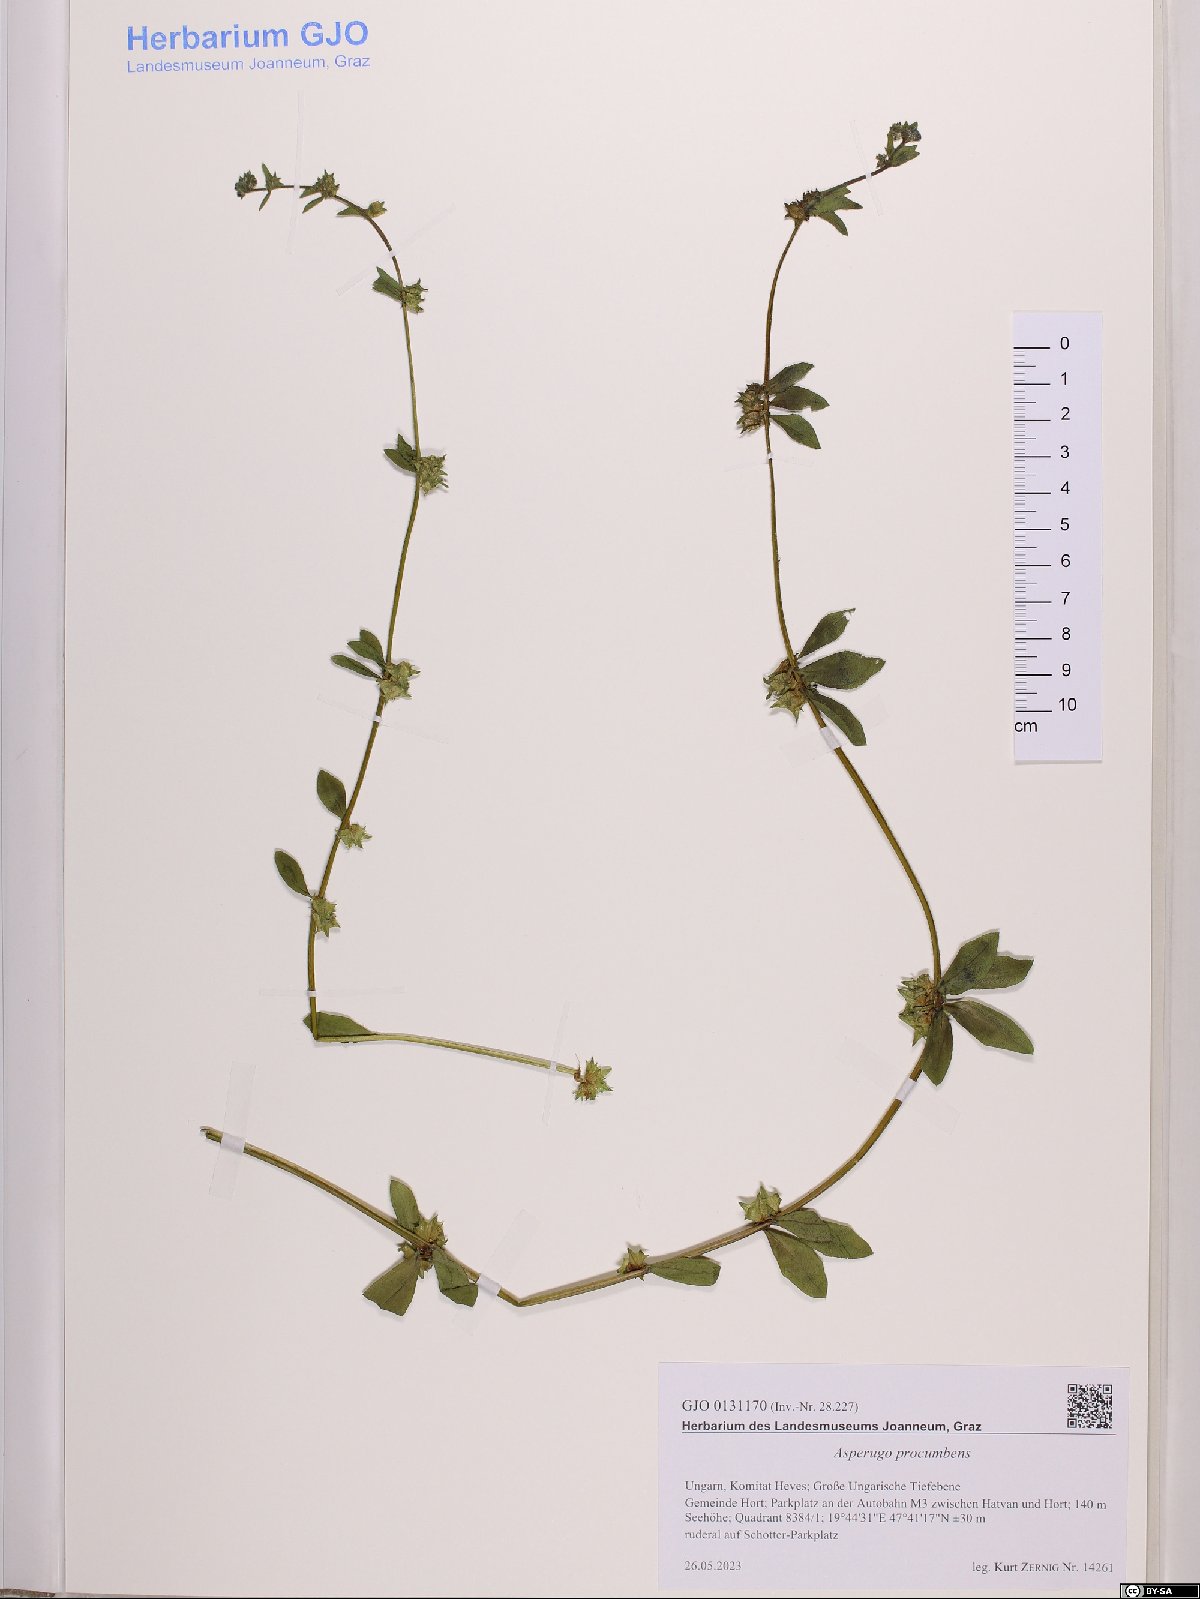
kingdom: Plantae
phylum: Tracheophyta
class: Magnoliopsida
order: Boraginales
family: Boraginaceae
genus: Asperugo
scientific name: Asperugo procumbens
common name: Madwort
